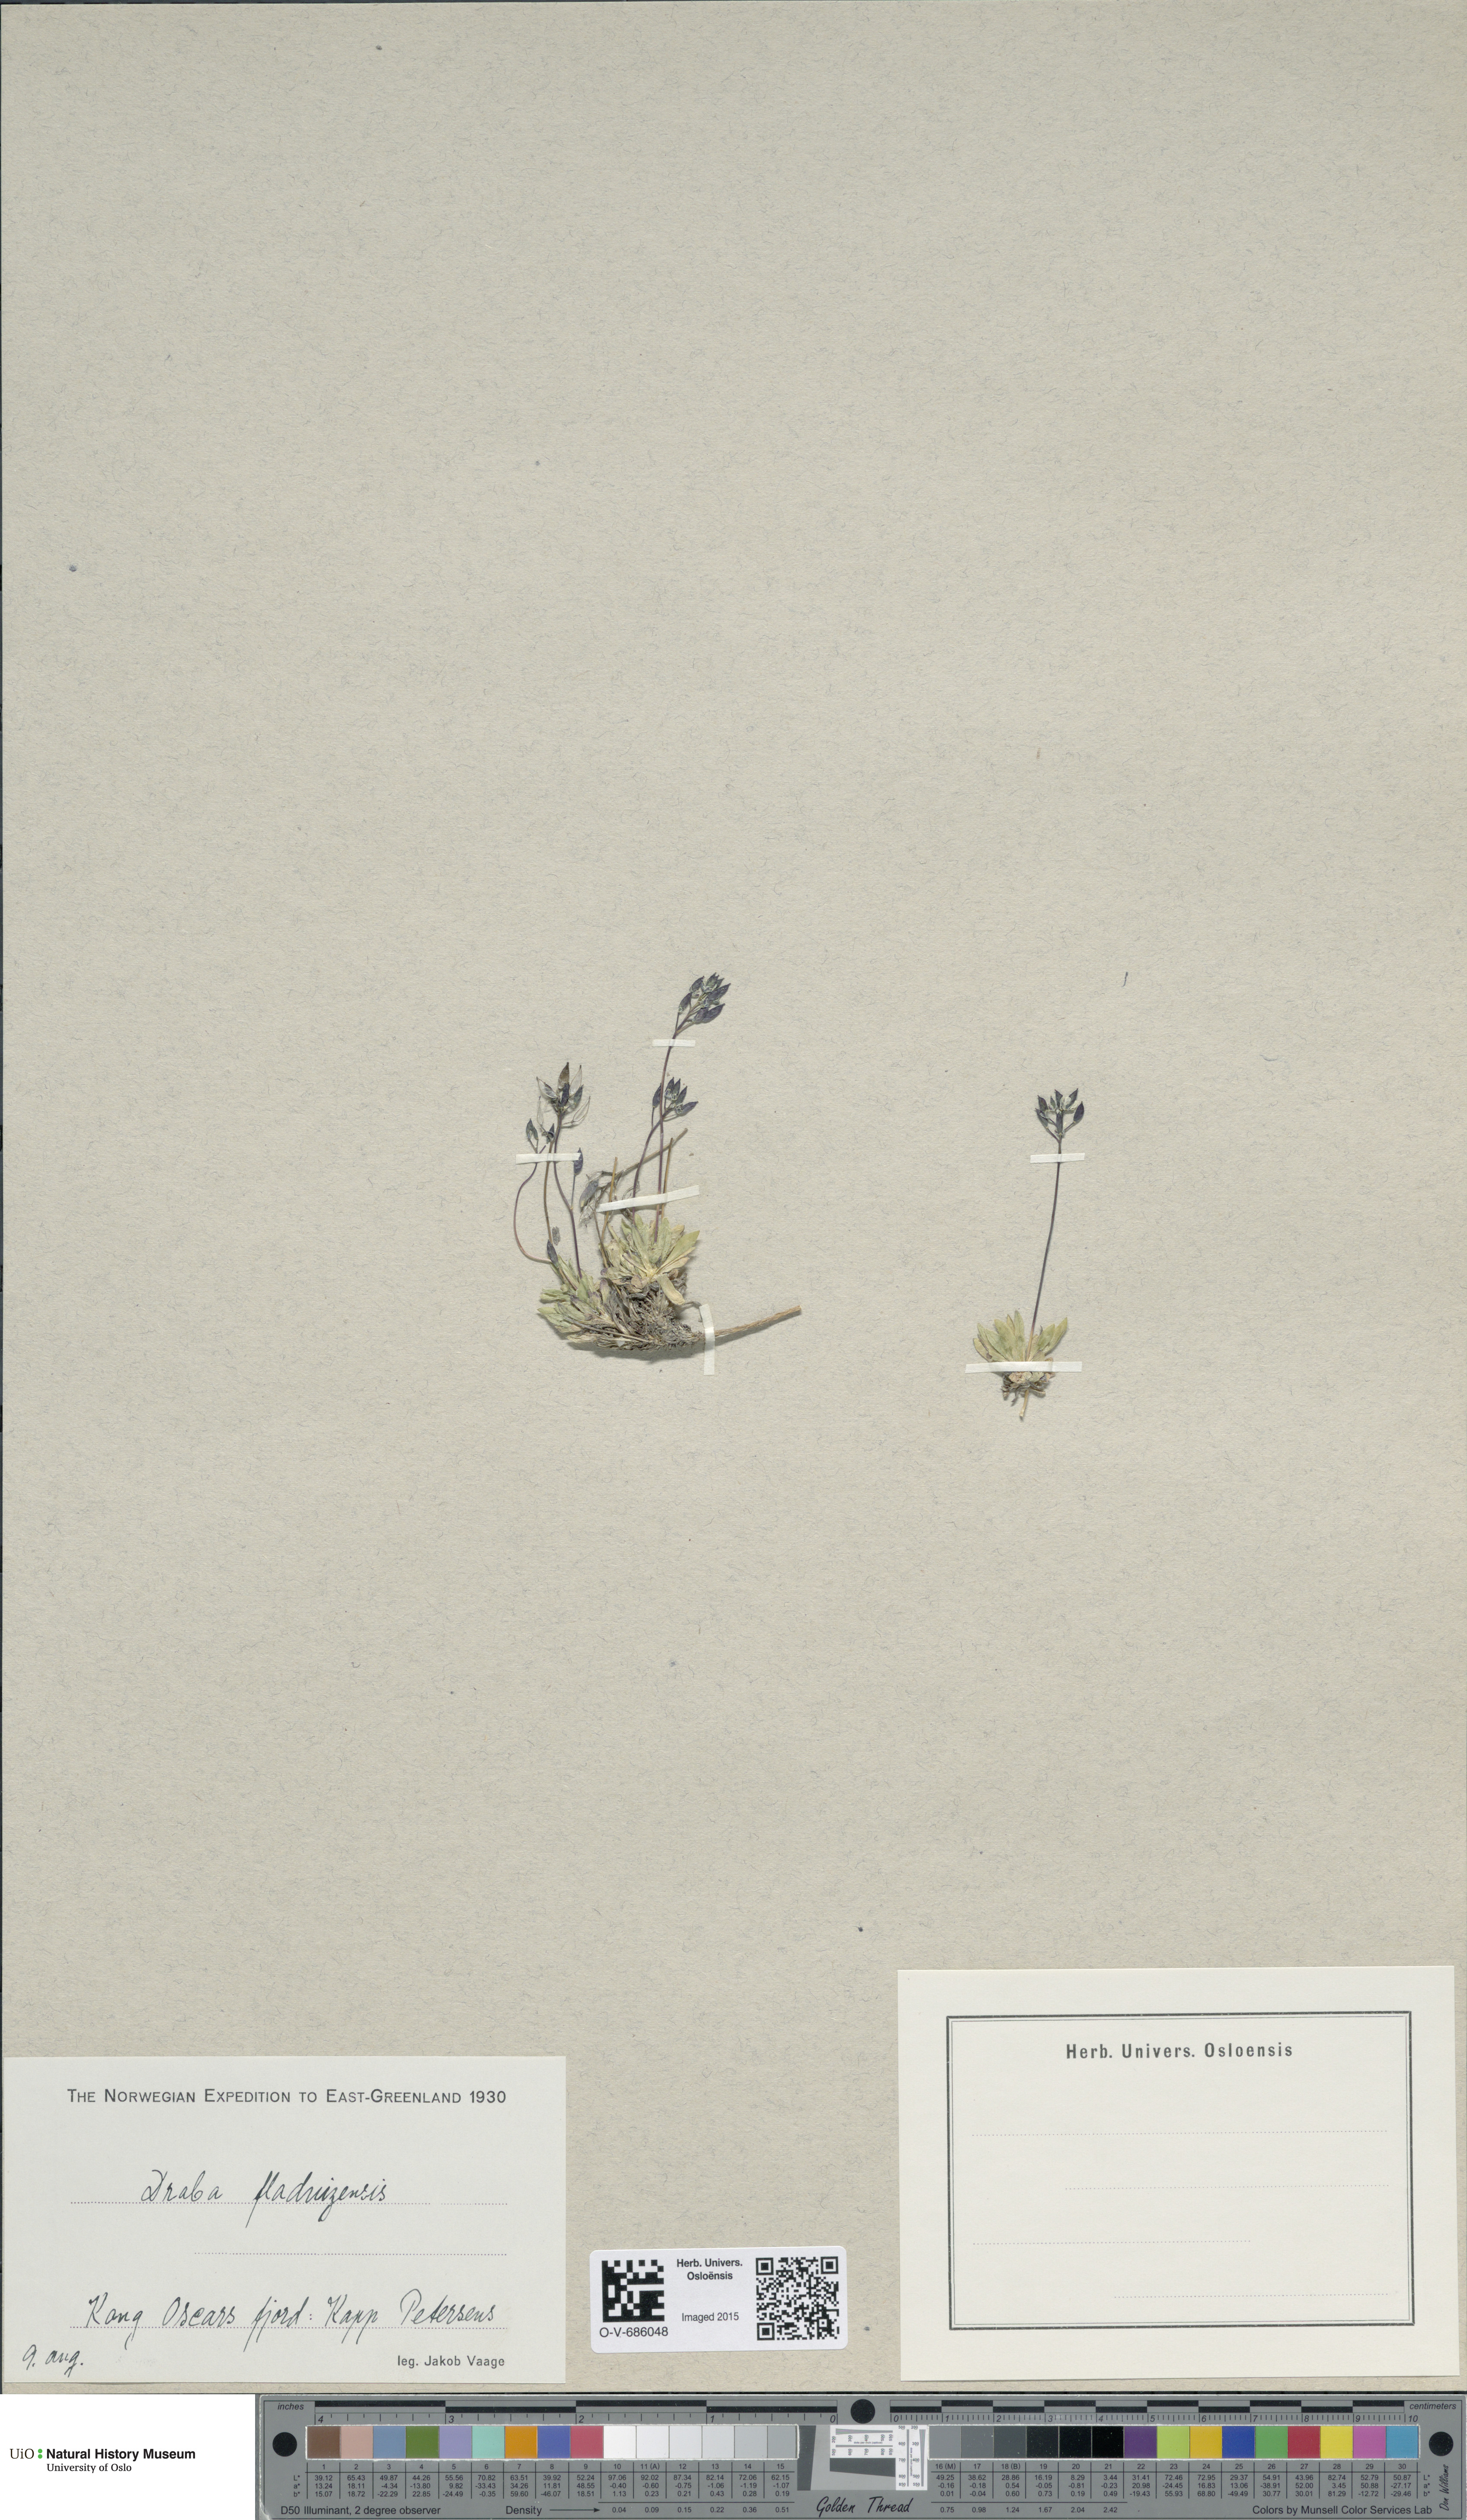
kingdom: Plantae
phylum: Tracheophyta
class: Magnoliopsida
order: Brassicales
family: Brassicaceae
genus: Draba
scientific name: Draba fladnizensis
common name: Austrian draba
